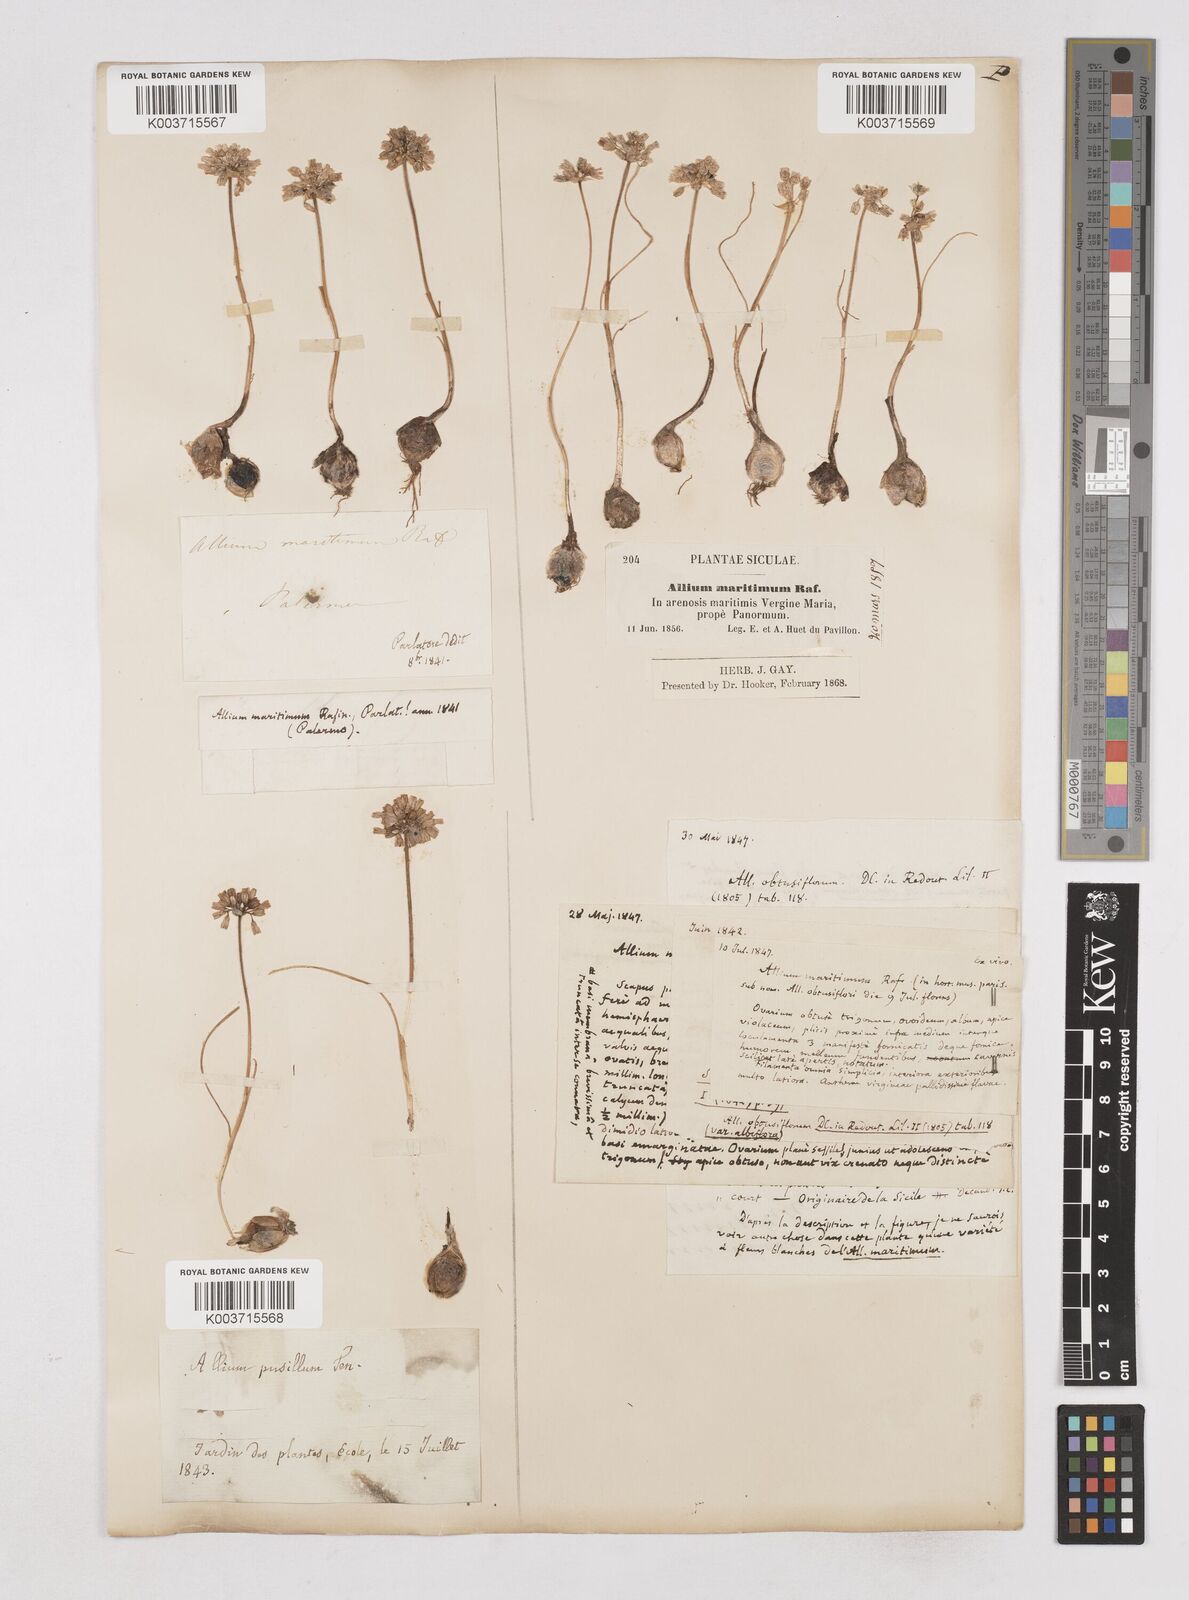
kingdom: Plantae
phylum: Tracheophyta
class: Liliopsida
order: Asparagales
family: Amaryllidaceae
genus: Allium
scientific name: Allium
